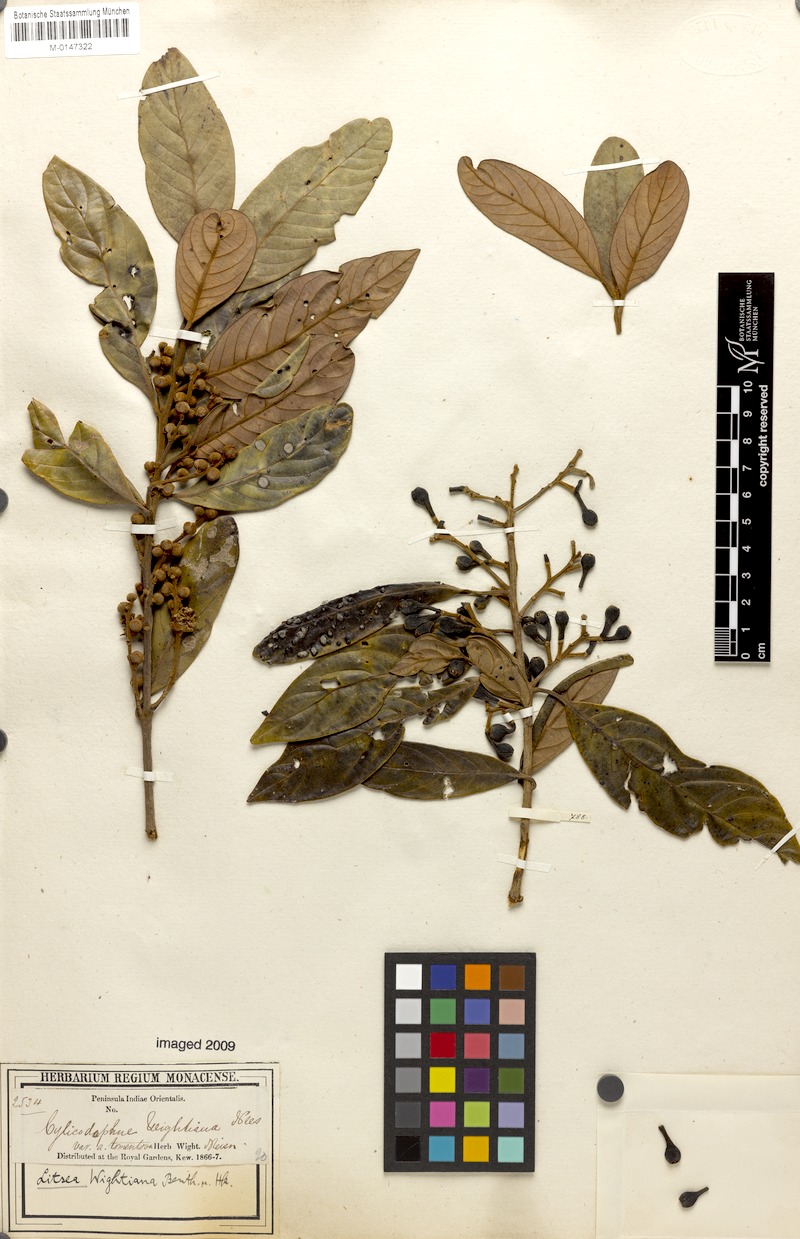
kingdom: Plantae
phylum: Tracheophyta
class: Magnoliopsida
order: Laurales
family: Lauraceae
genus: Litsea
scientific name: Litsea wightiana
